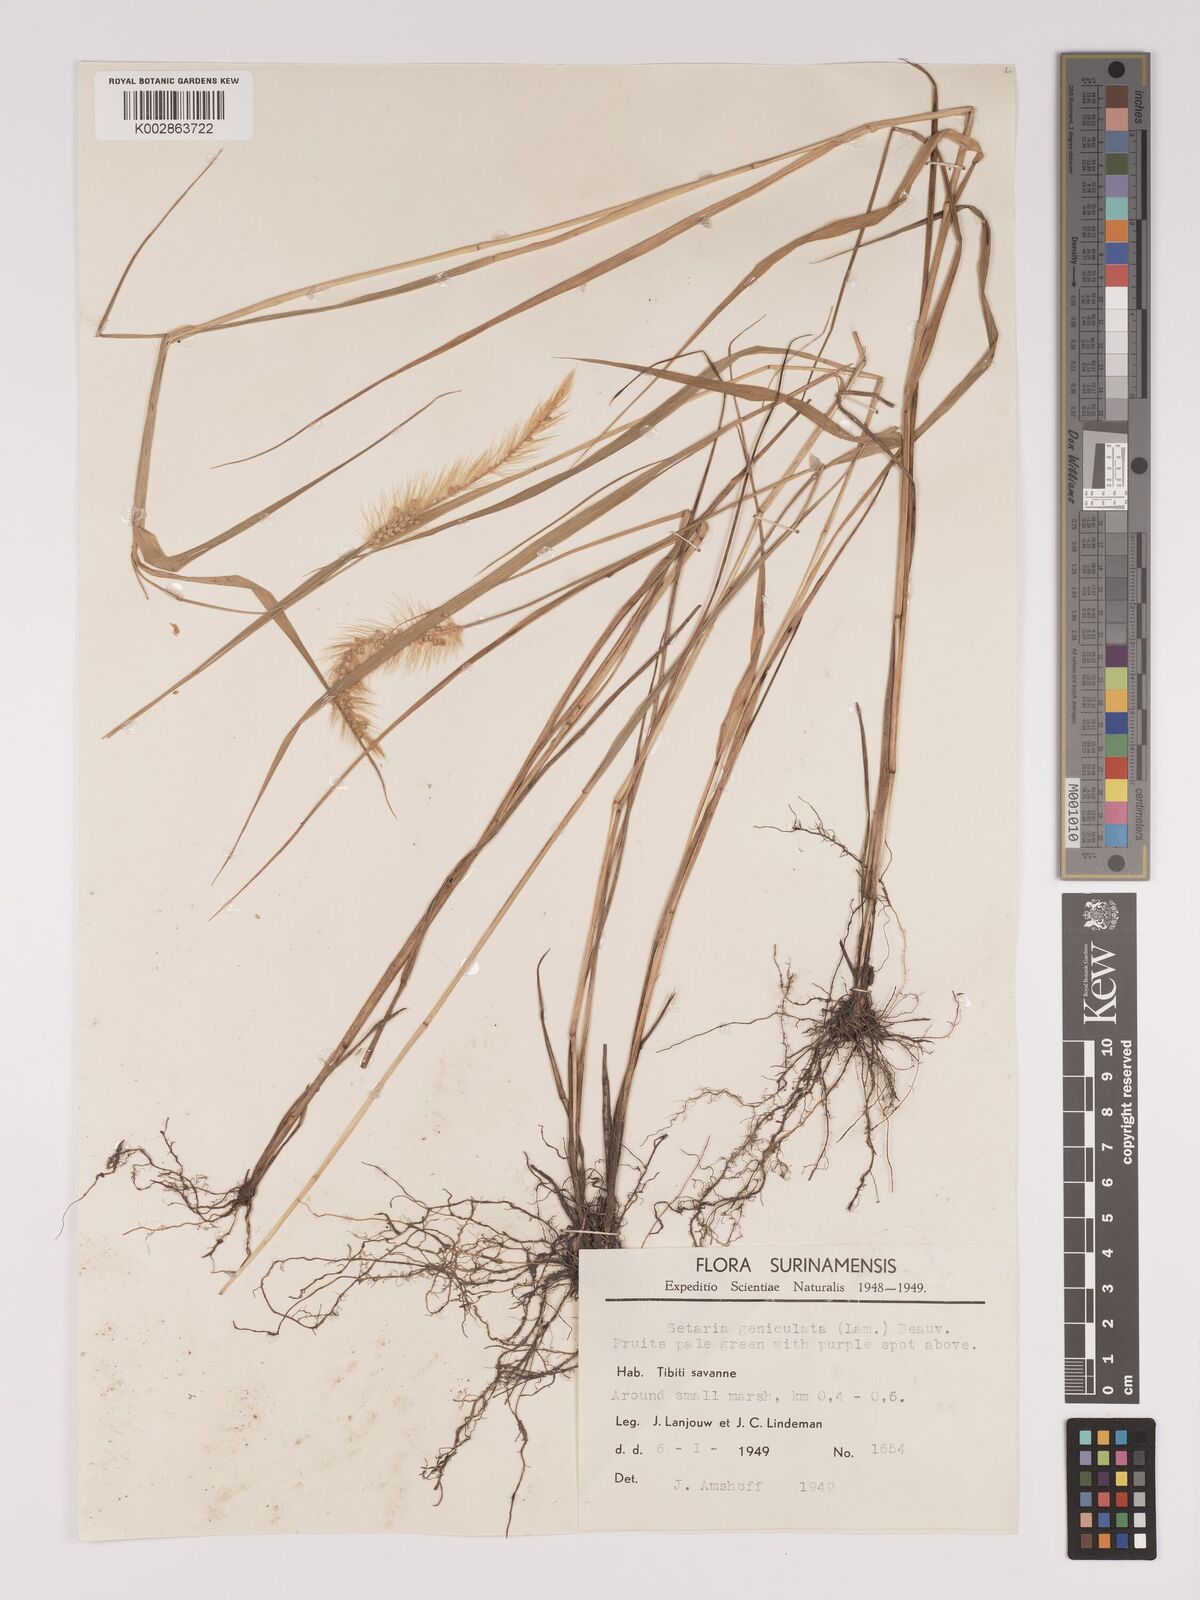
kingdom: Plantae
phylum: Tracheophyta
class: Liliopsida
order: Poales
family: Poaceae
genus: Setaria
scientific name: Setaria parviflora
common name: Knotroot bristle-grass
